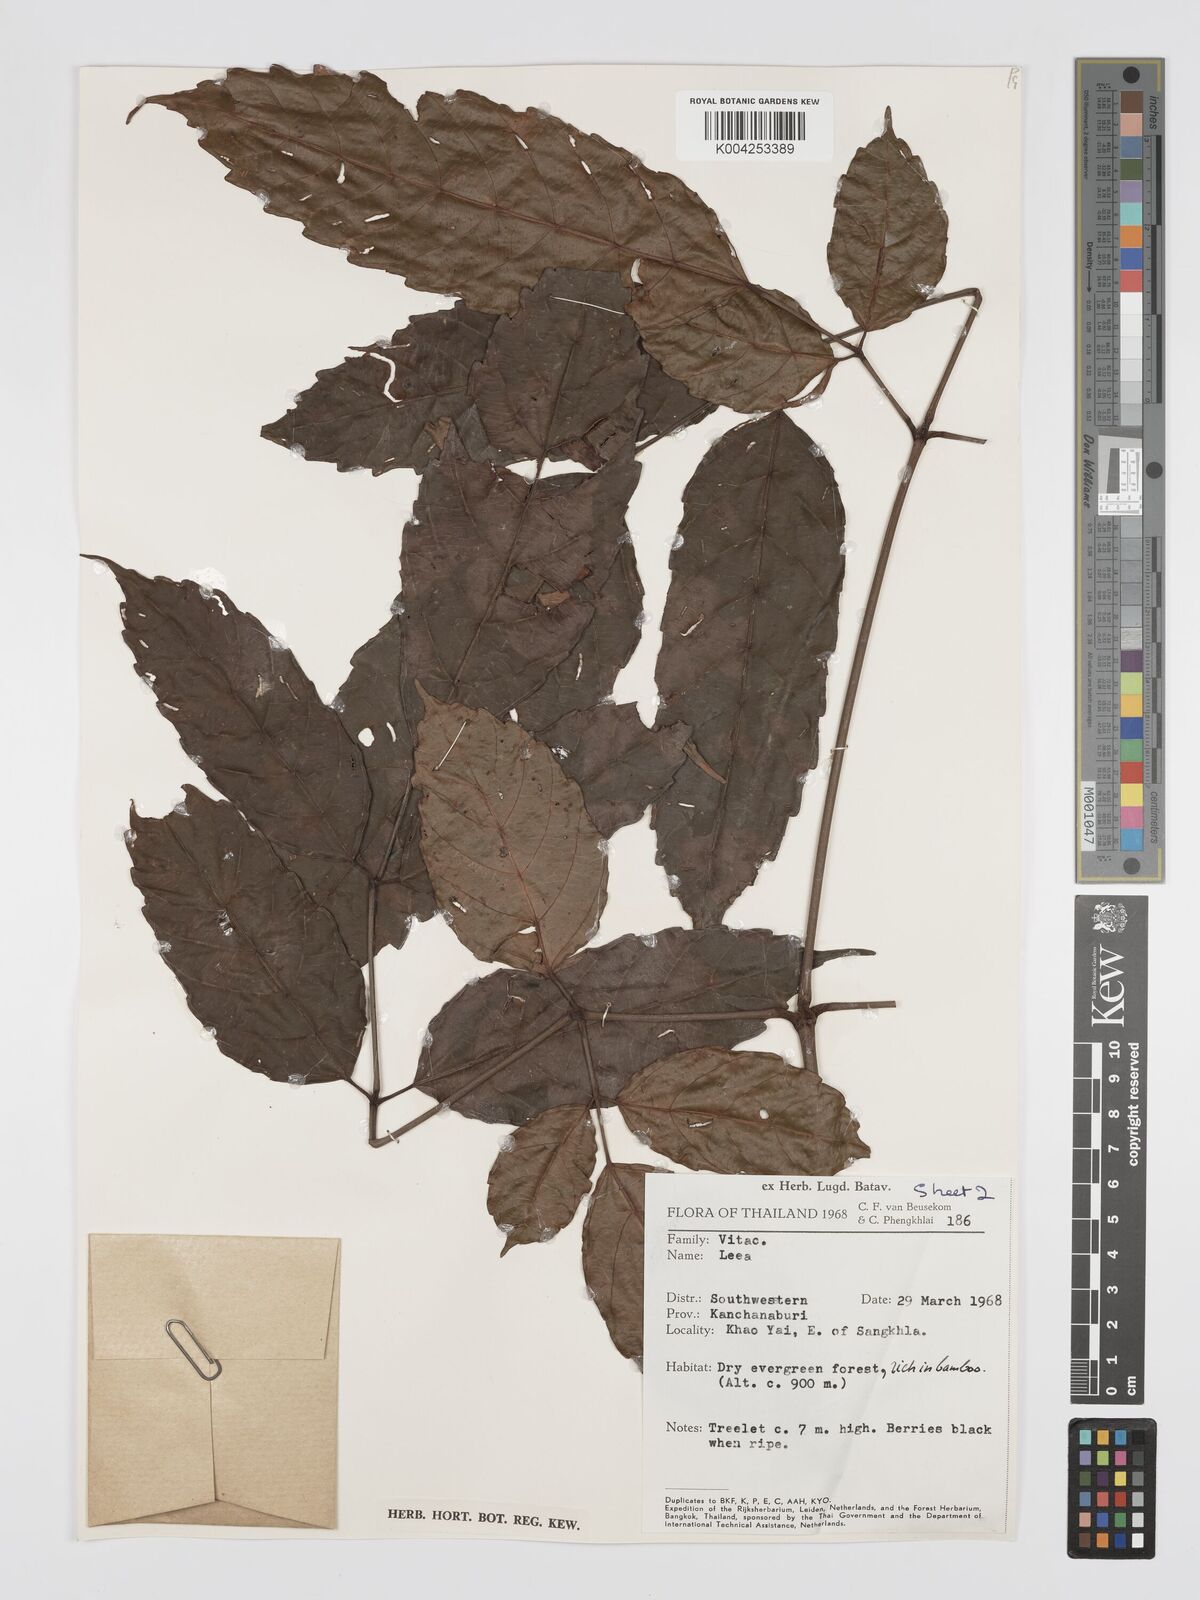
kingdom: Plantae
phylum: Tracheophyta
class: Magnoliopsida
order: Vitales
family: Vitaceae
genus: Leea
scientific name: Leea
